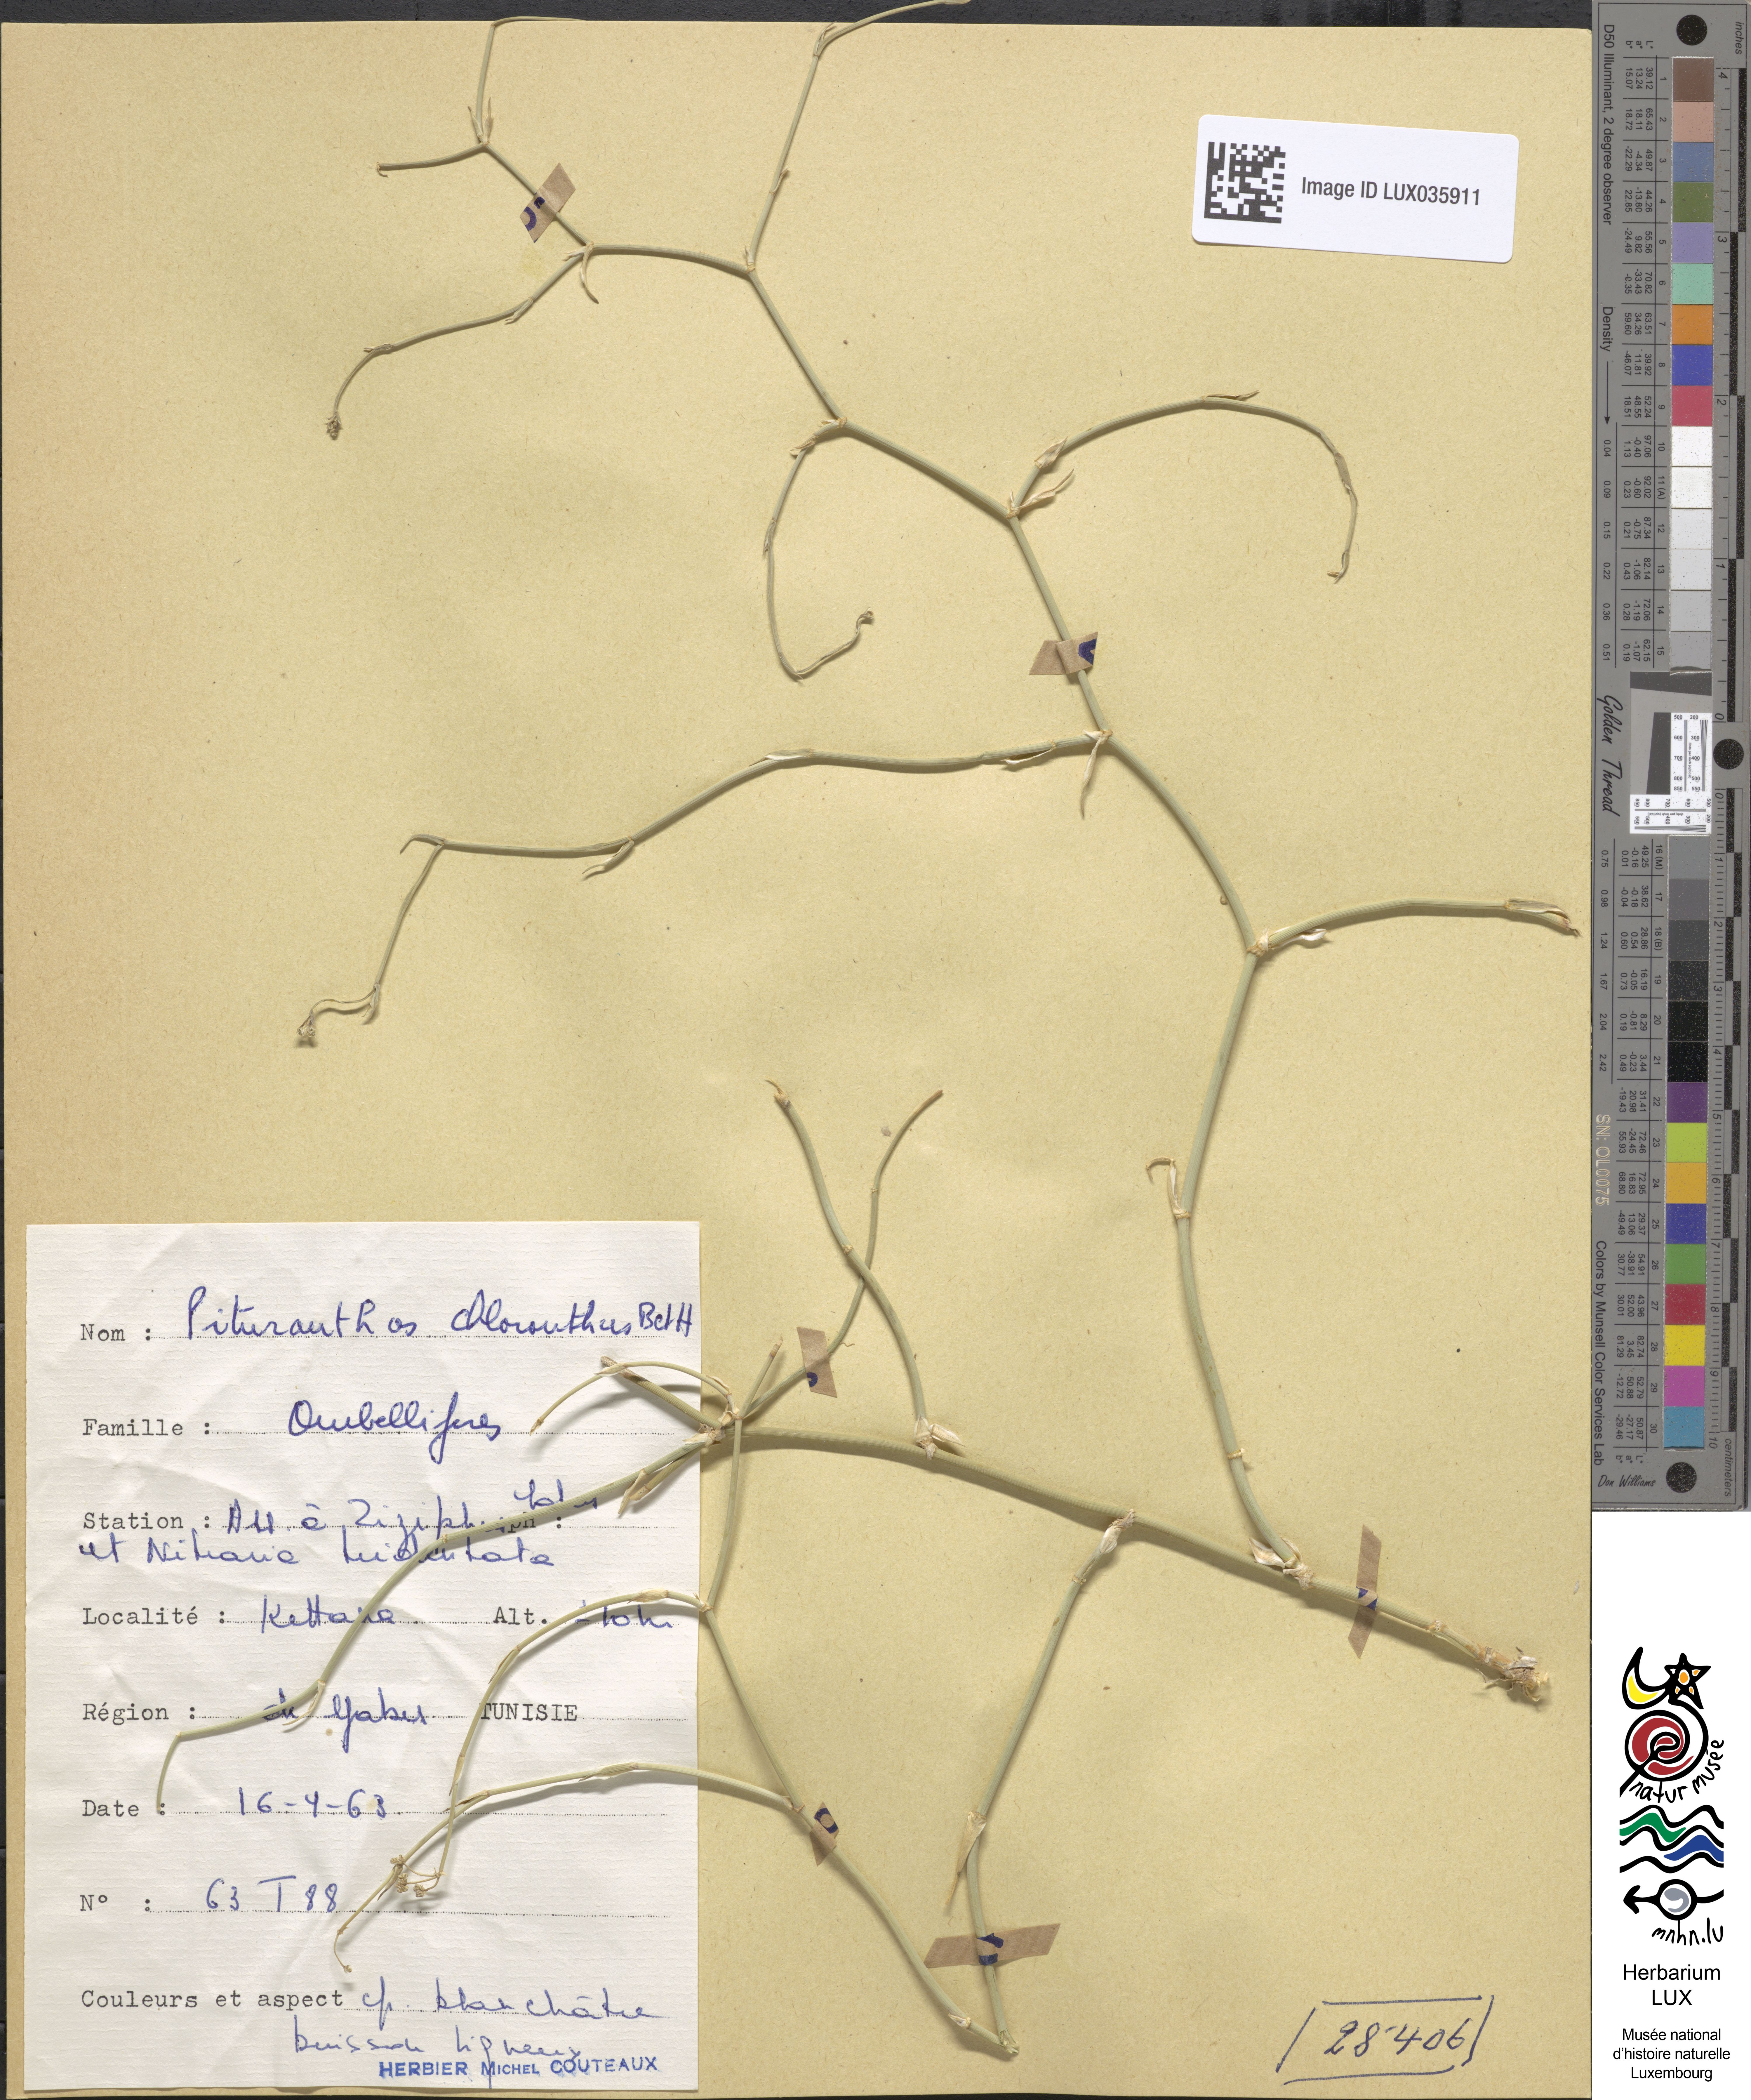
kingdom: Plantae
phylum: Tracheophyta
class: Magnoliopsida
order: Apiales
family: Apiaceae
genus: Deverra
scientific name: Deverra
